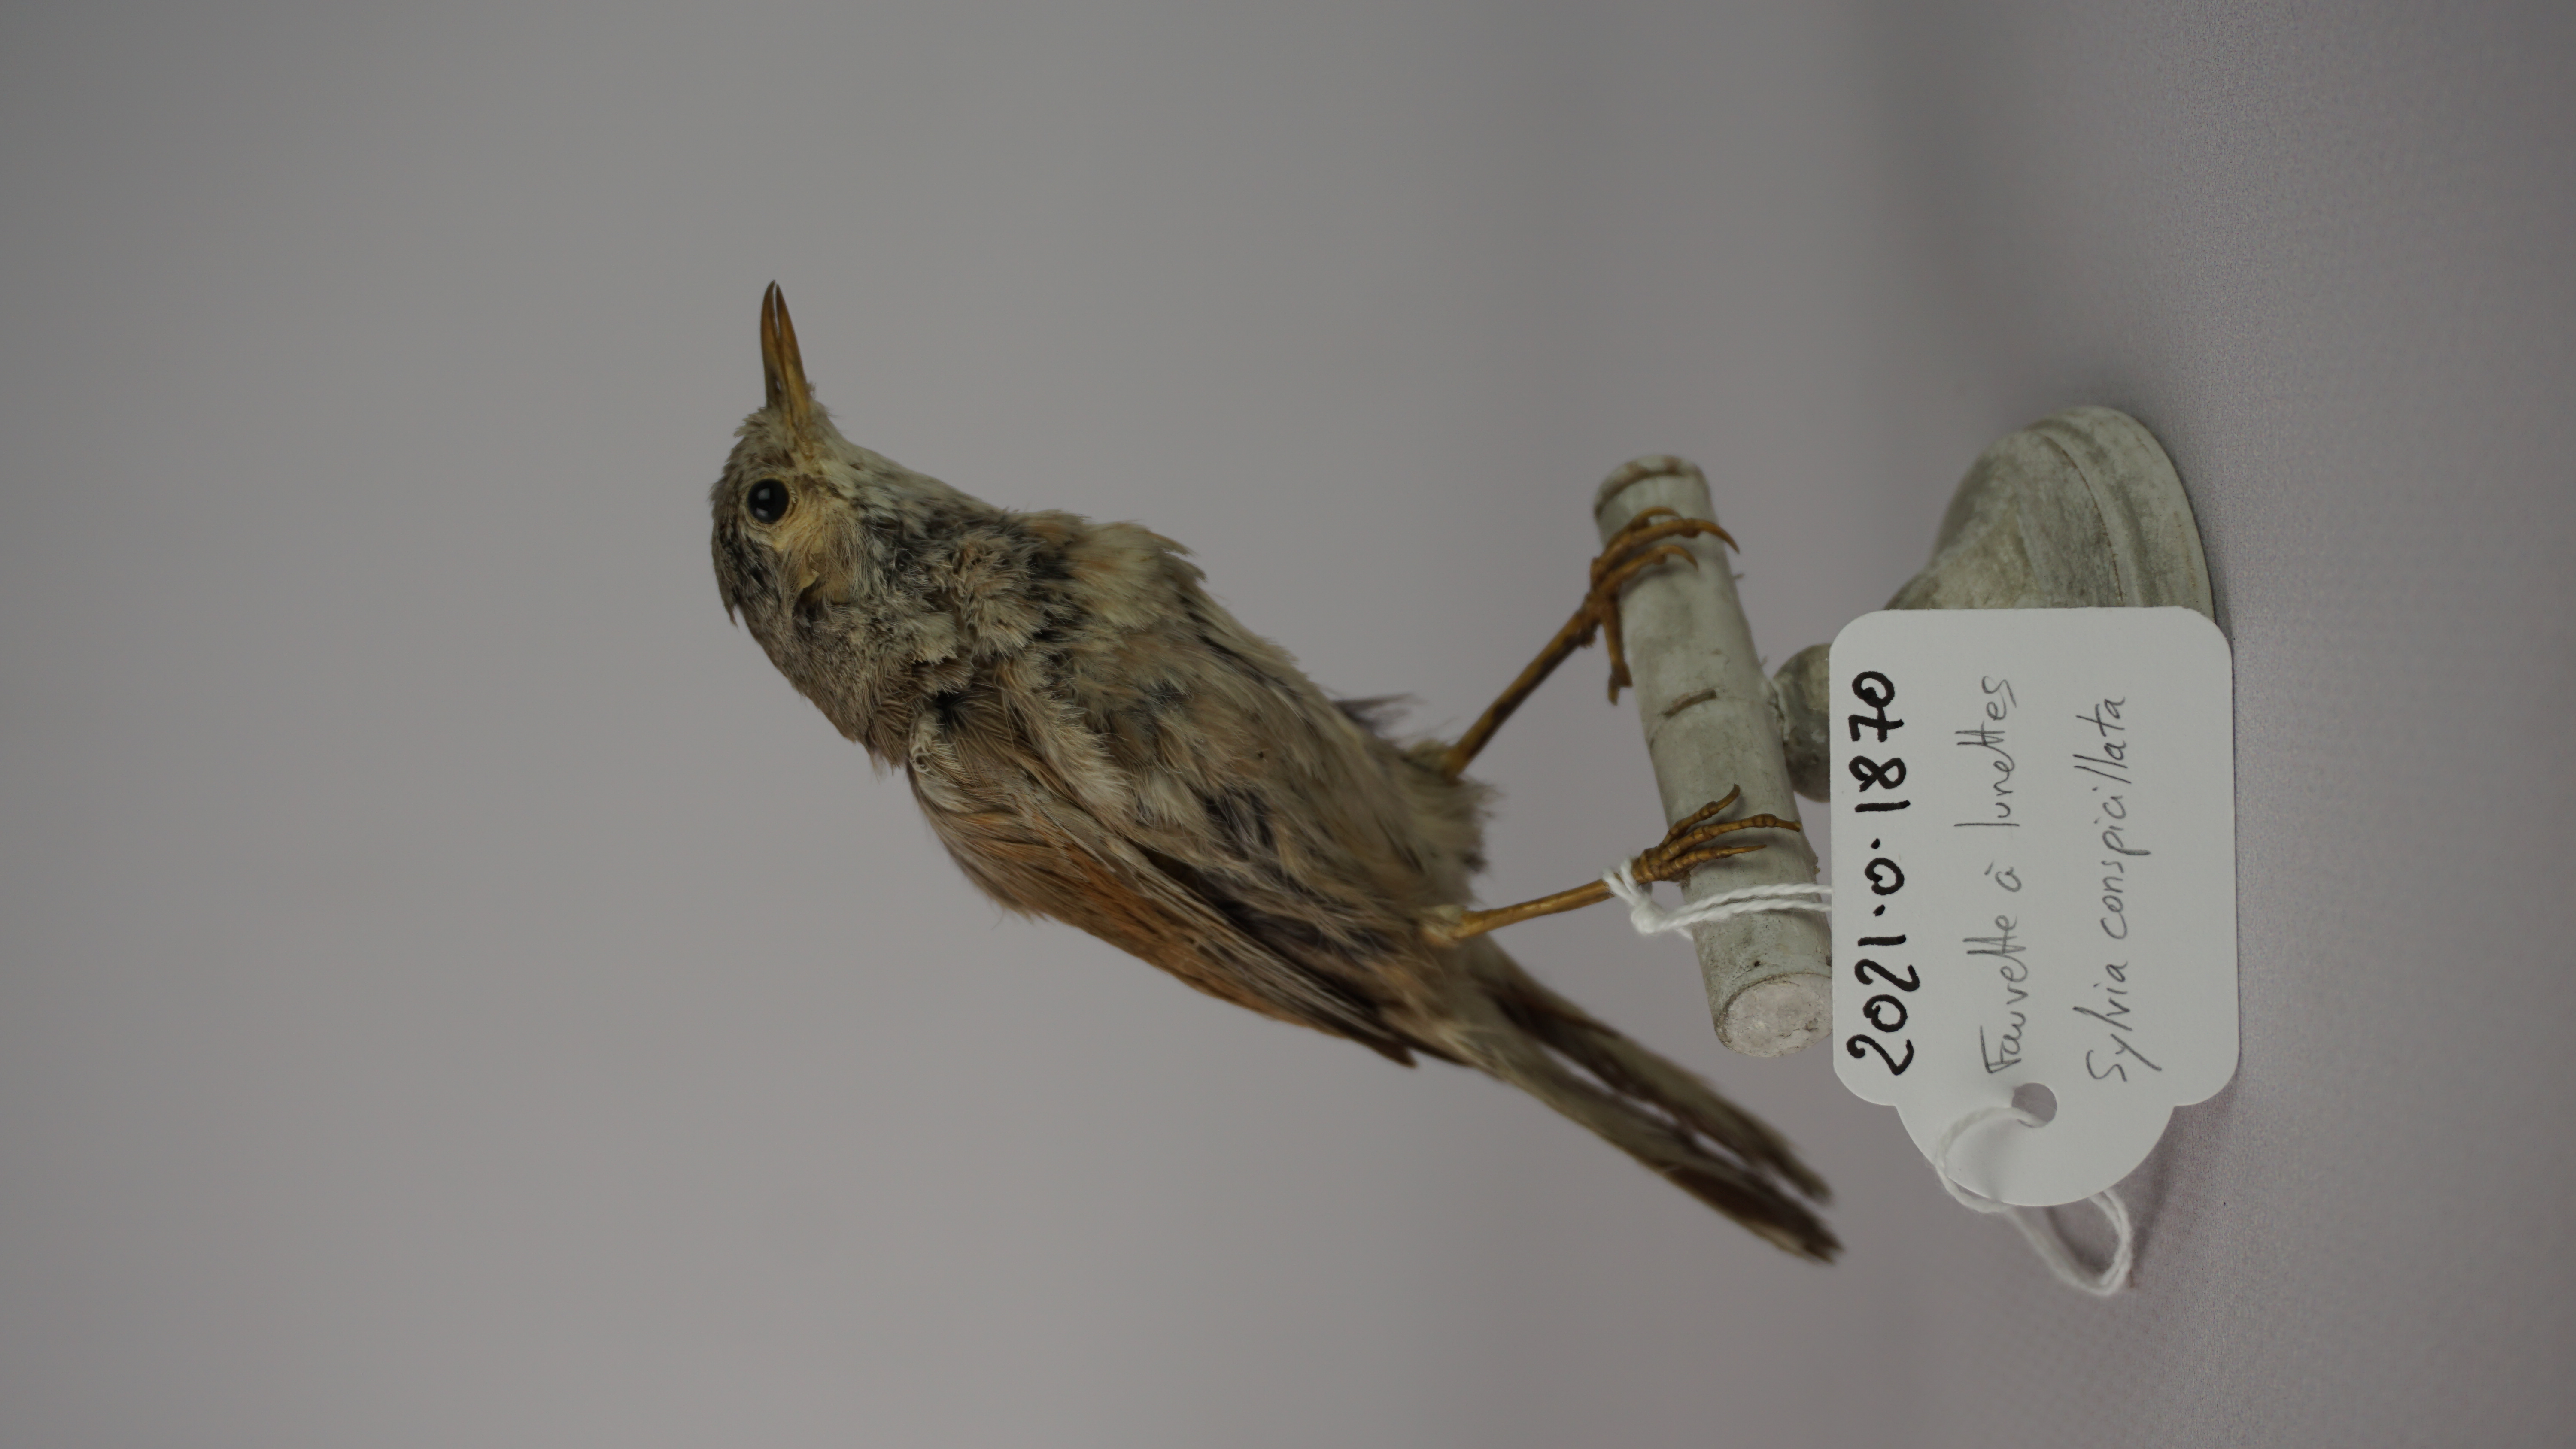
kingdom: Animalia
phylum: Chordata
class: Aves
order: Passeriformes
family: Sylviidae
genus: Sylvia
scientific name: Sylvia conspicillata
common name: Spectacled warbler
